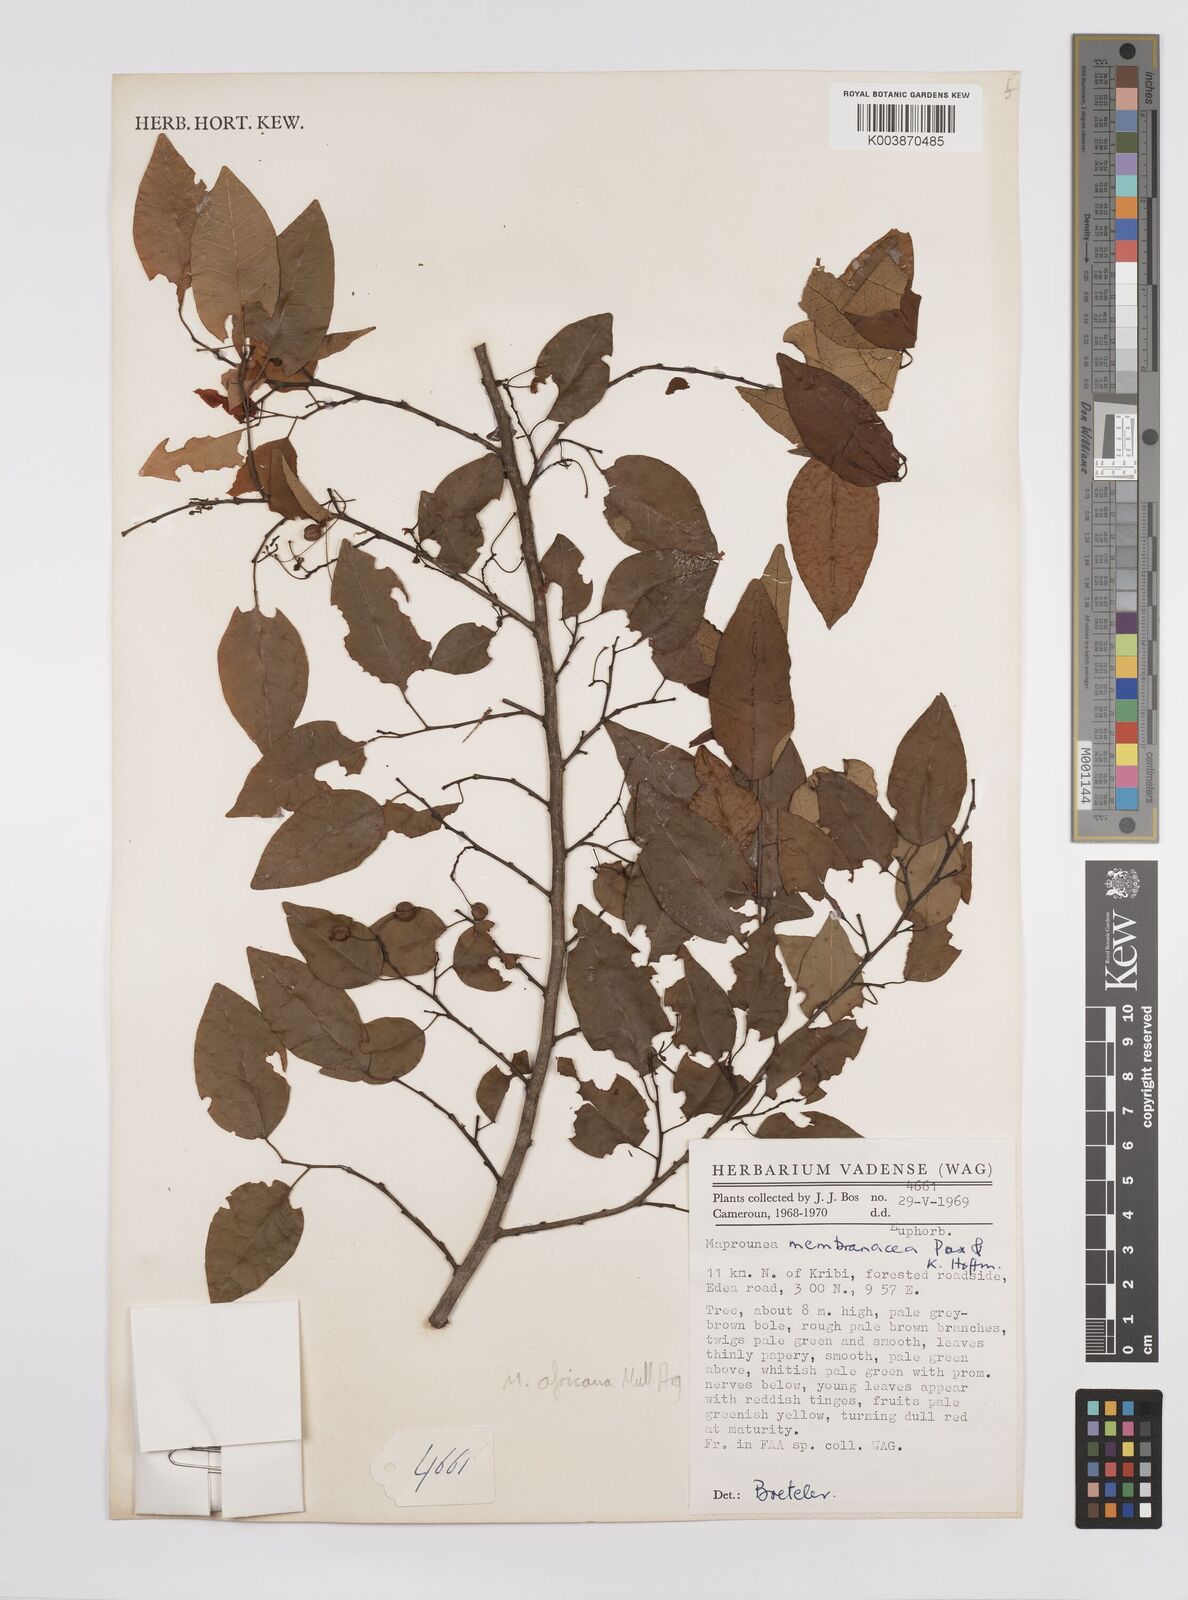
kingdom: Plantae
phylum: Tracheophyta
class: Magnoliopsida
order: Malpighiales
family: Euphorbiaceae
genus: Maprounea
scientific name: Maprounea membranacea
